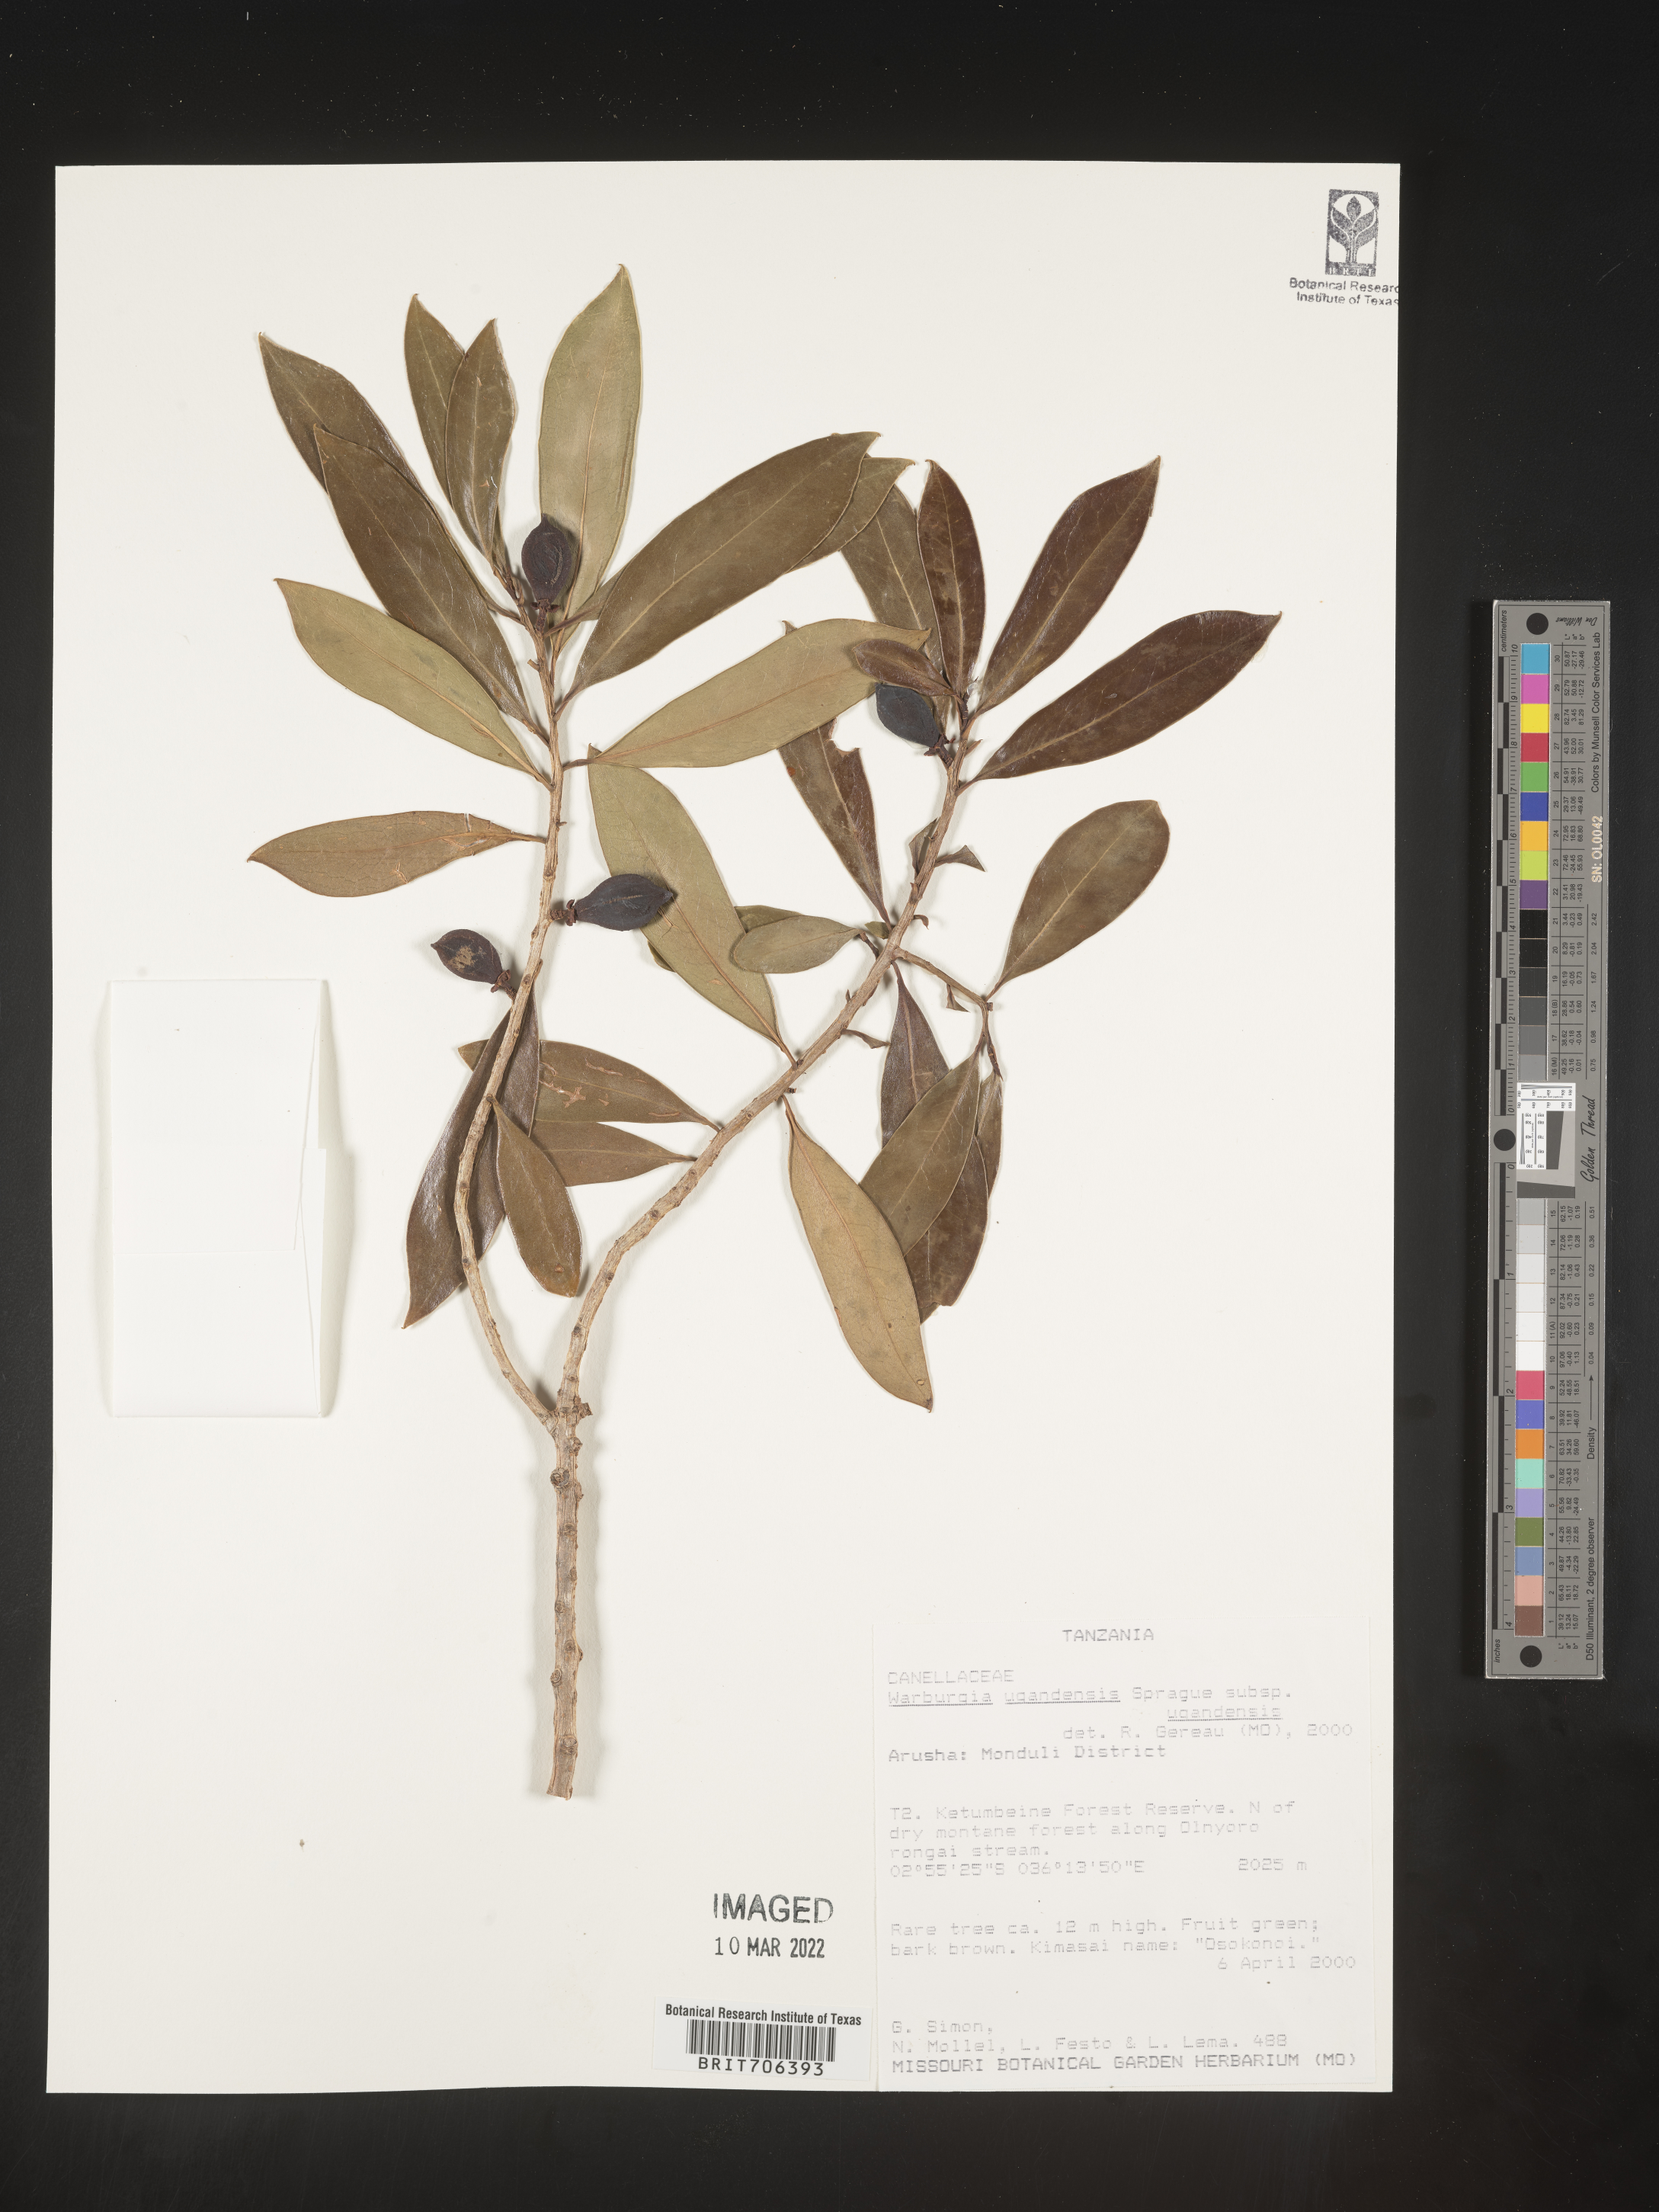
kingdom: Plantae
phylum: Tracheophyta
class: Magnoliopsida
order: Canellales
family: Canellaceae
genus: Warburgia
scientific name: Warburgia
